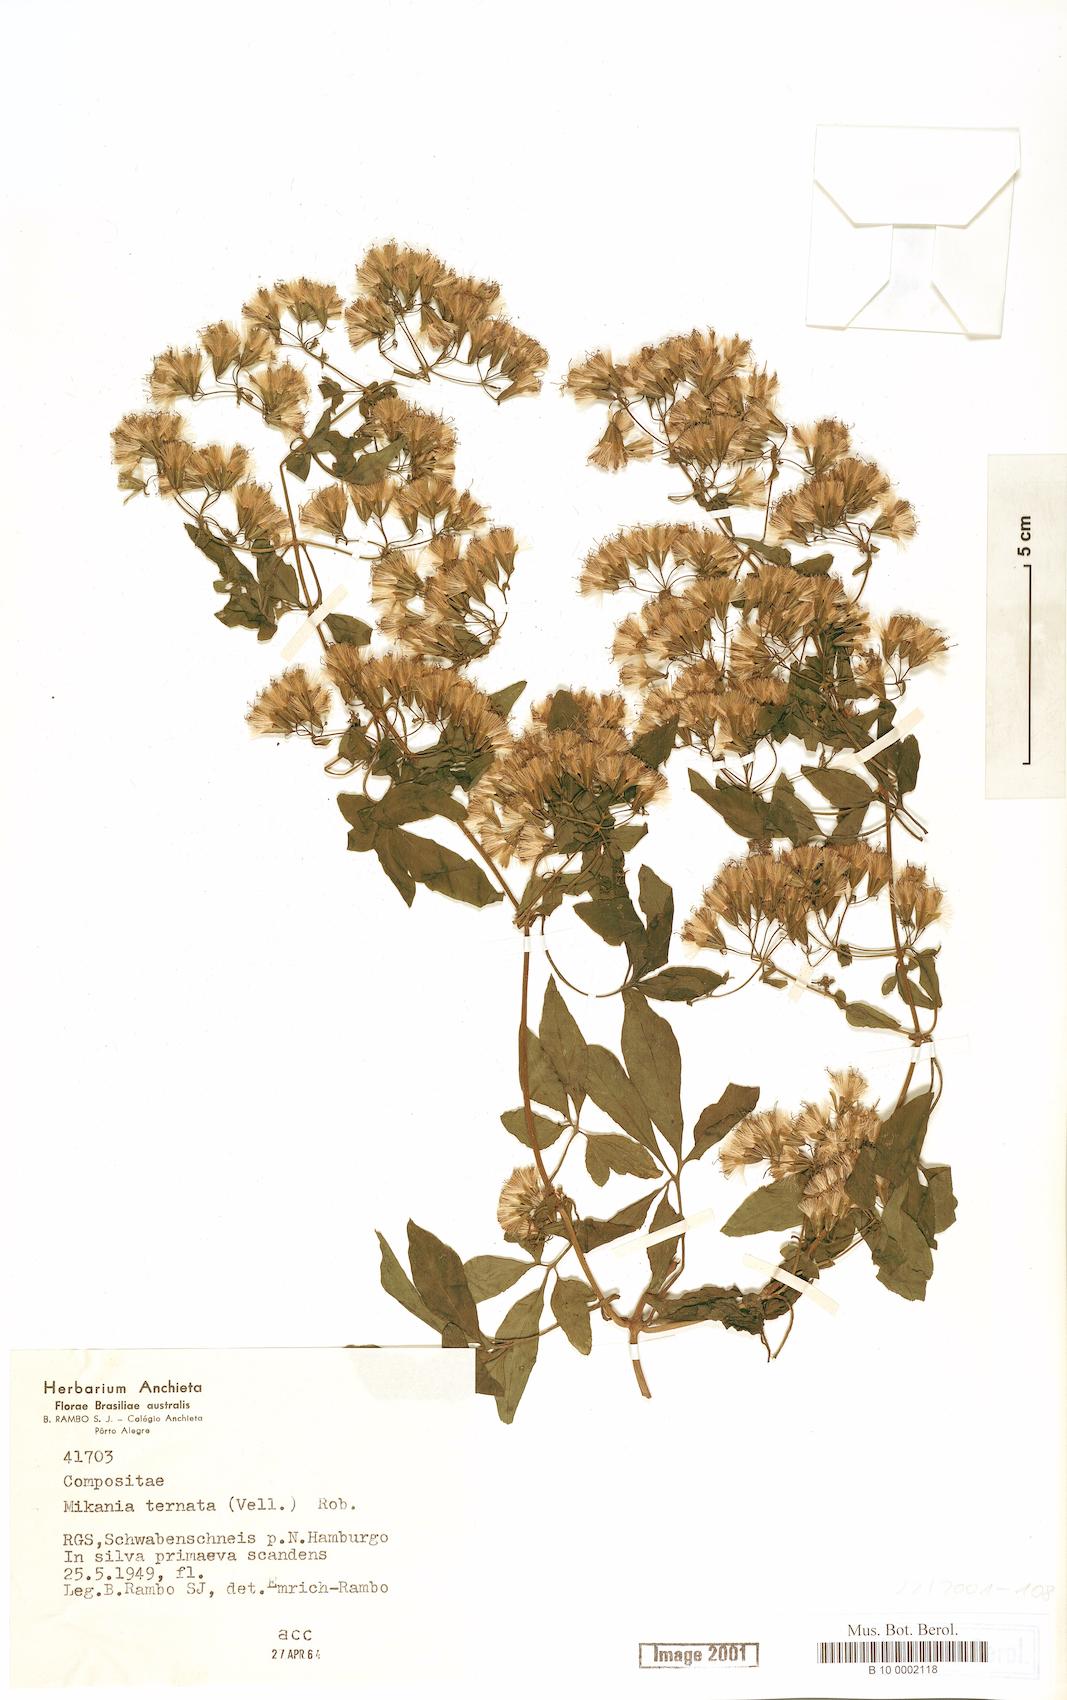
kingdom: Plantae
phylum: Tracheophyta
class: Magnoliopsida
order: Asterales
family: Asteraceae
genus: Mikania
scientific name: Mikania ternata
